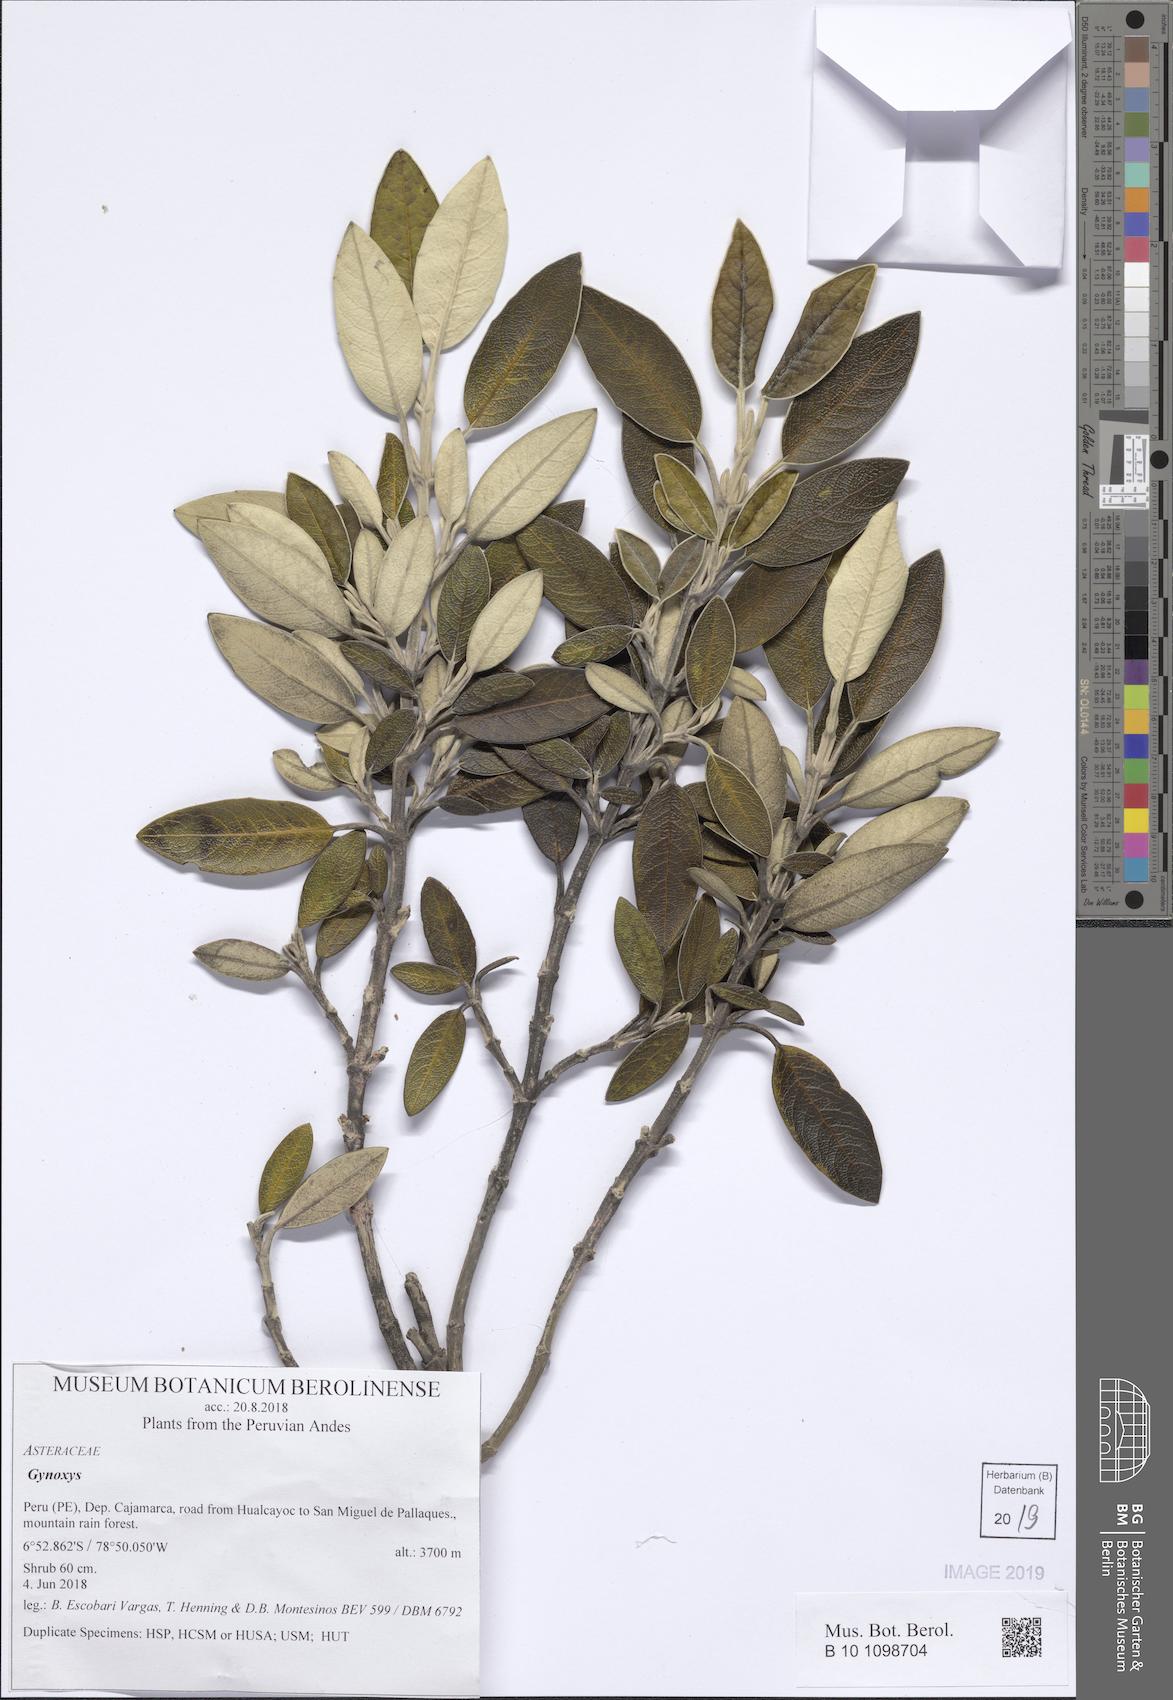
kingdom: Plantae
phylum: Tracheophyta
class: Magnoliopsida
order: Asterales
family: Asteraceae
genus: Gynoxys
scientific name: Gynoxys
